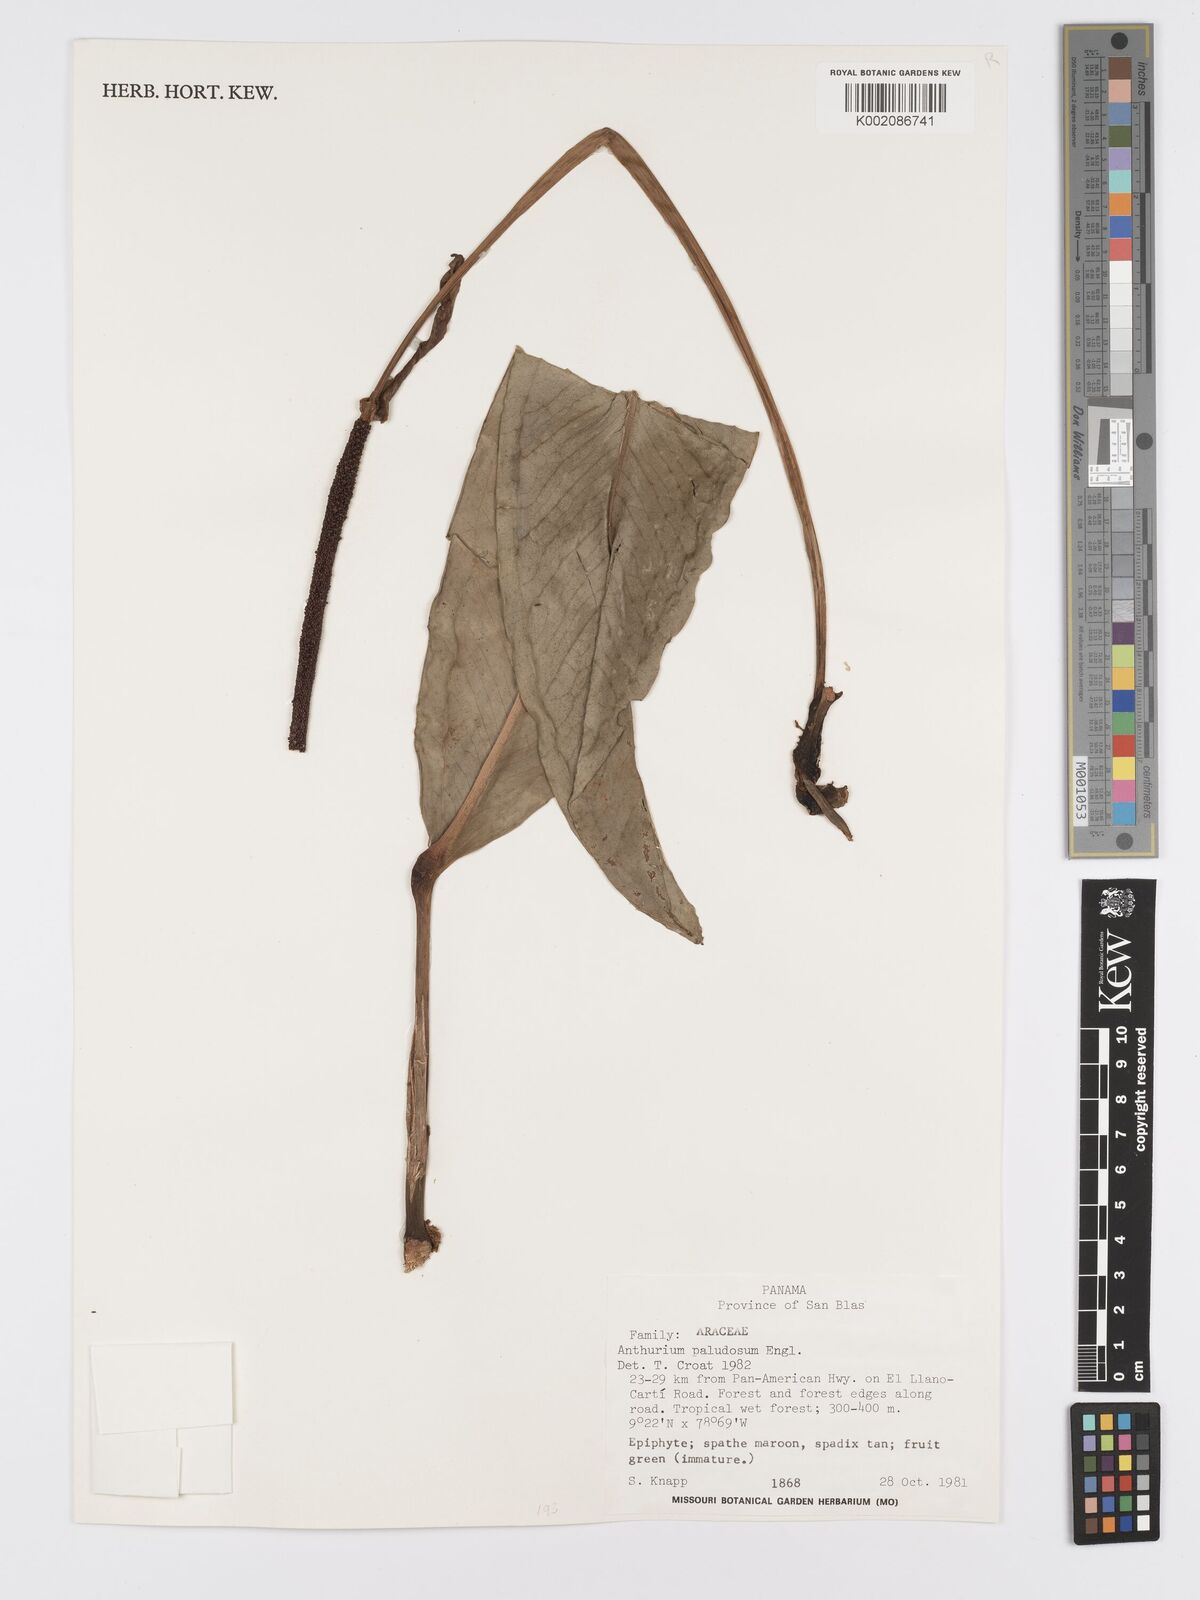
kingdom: Plantae
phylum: Tracheophyta
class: Liliopsida
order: Alismatales
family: Araceae
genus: Anthurium
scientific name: Anthurium paludosum
